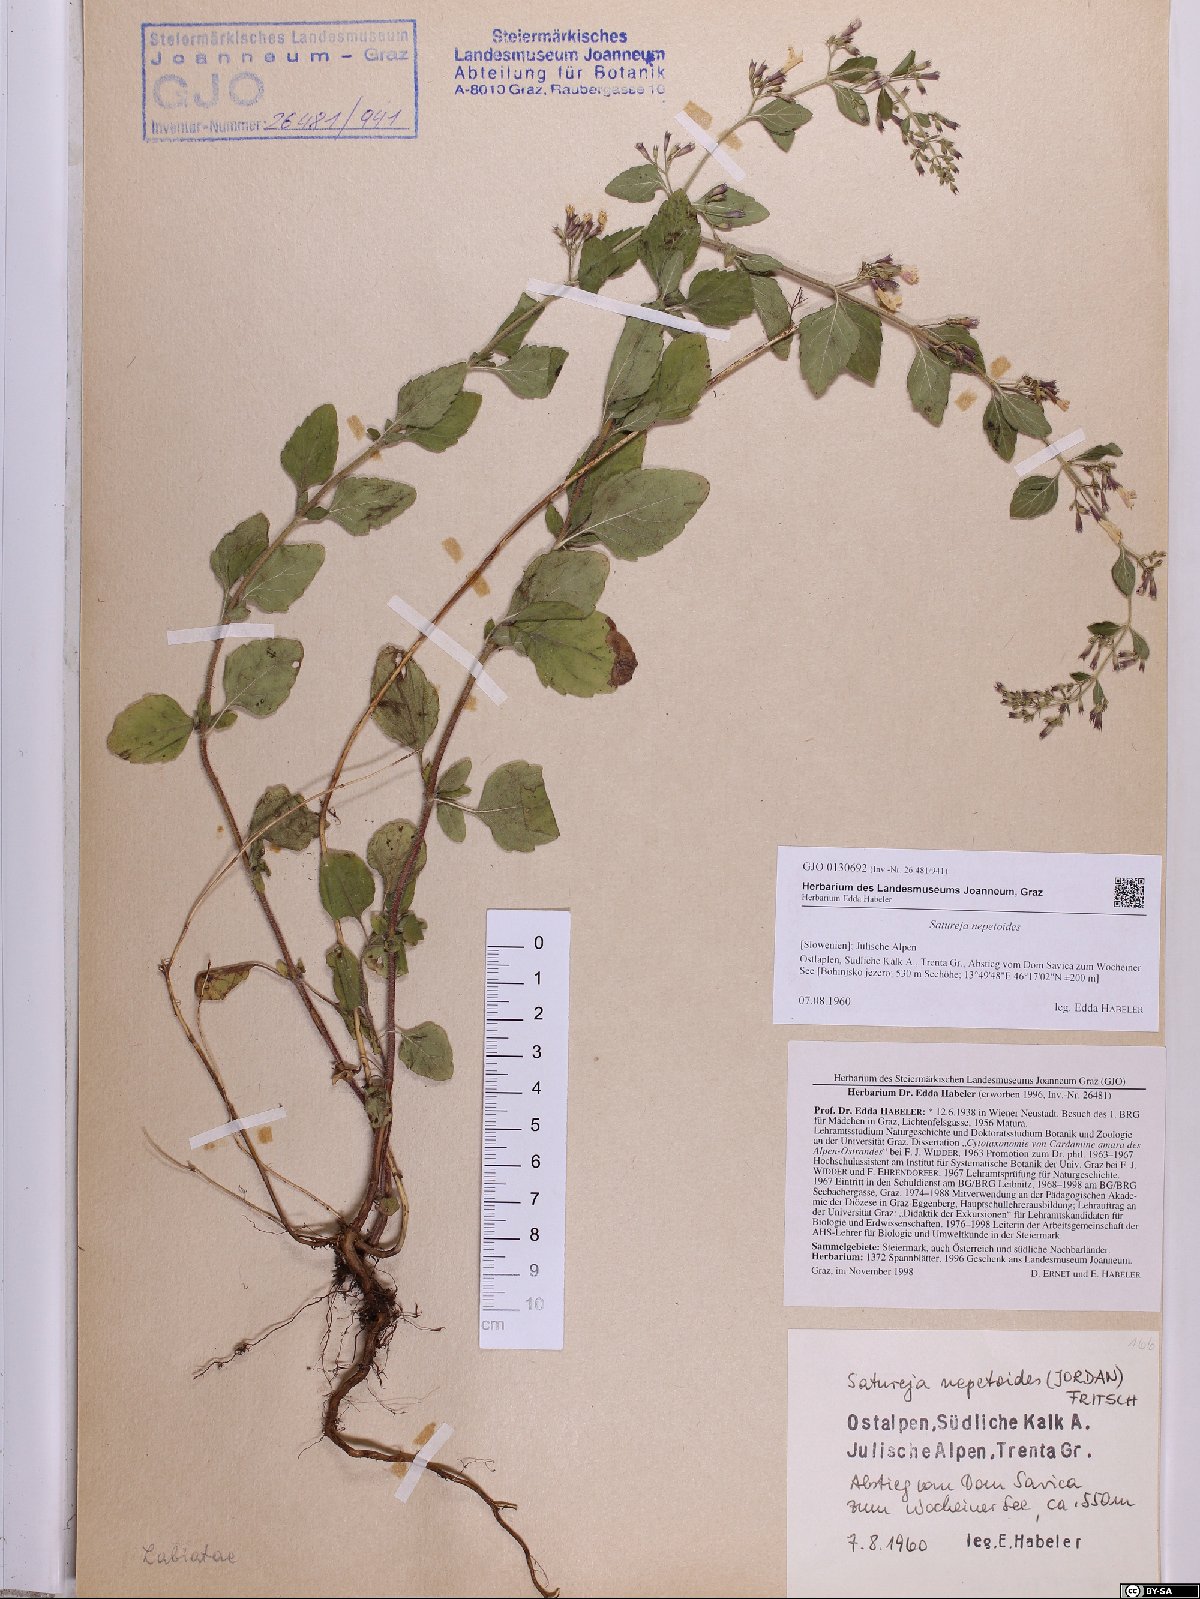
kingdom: Plantae
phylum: Tracheophyta
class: Magnoliopsida
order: Lamiales
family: Lamiaceae
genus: Clinopodium
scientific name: Clinopodium nepeta
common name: Lesser calamint
